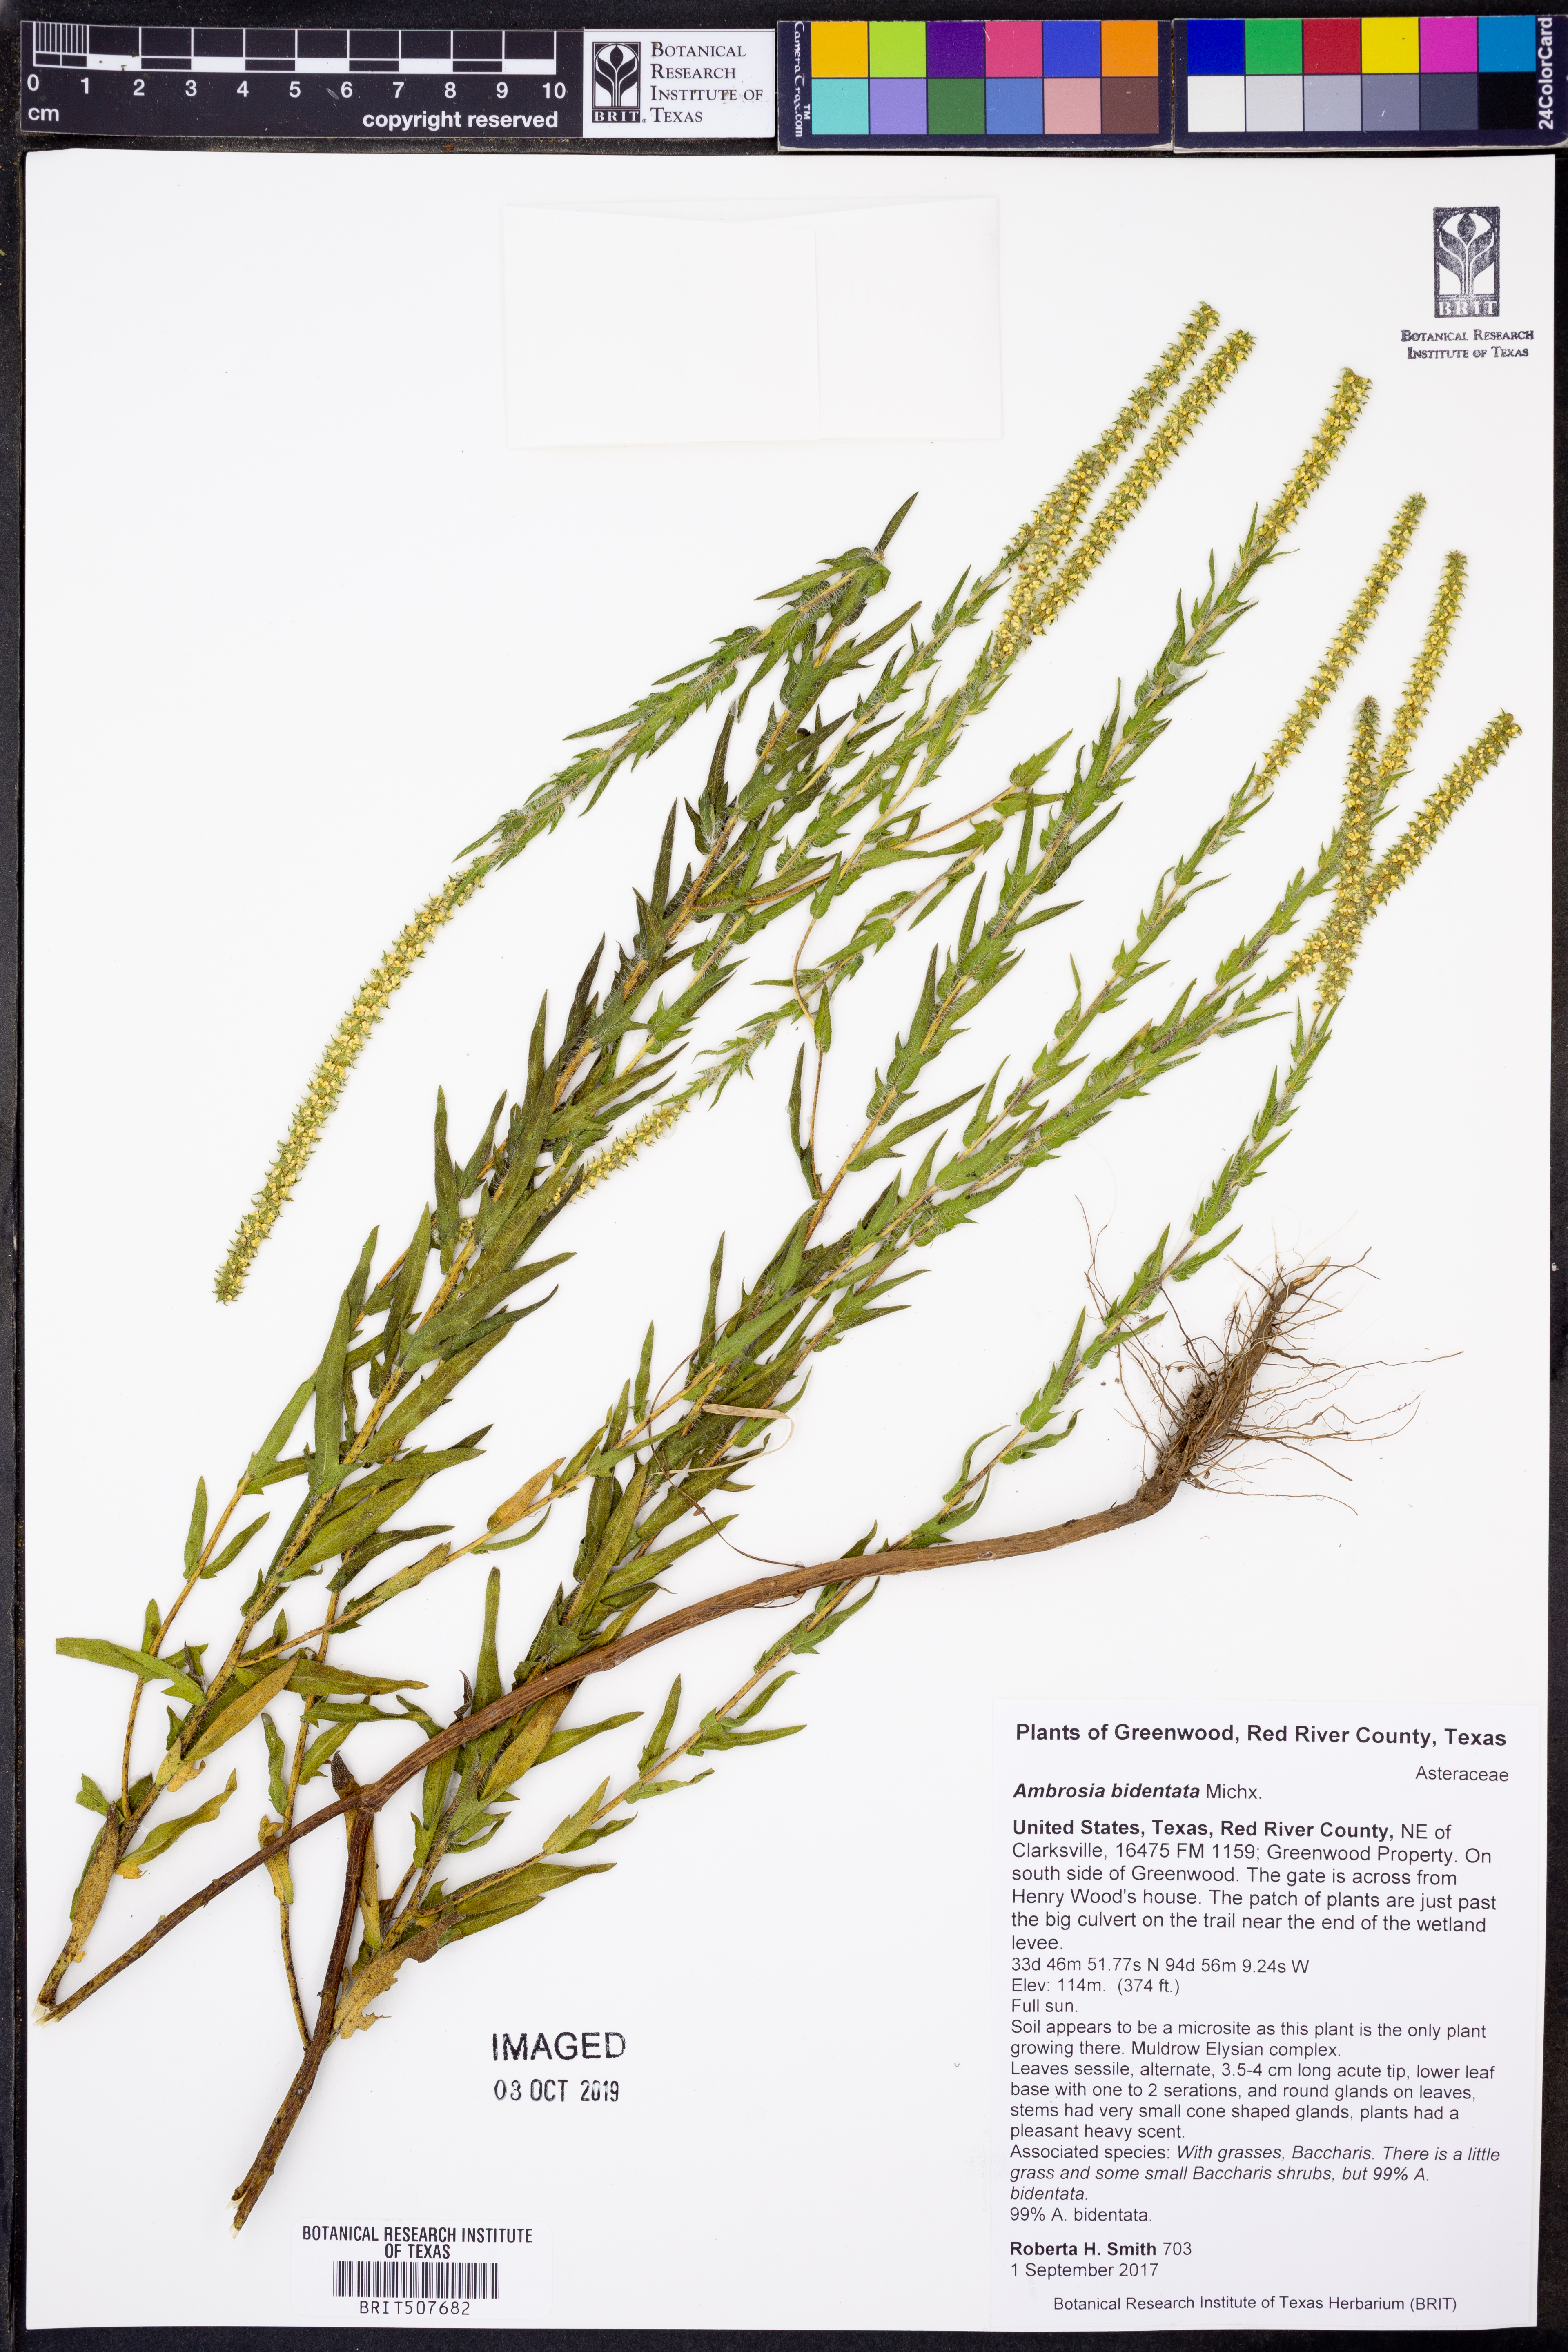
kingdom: Plantae
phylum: Tracheophyta
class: Magnoliopsida
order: Asterales
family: Asteraceae
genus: Ambrosia
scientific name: Ambrosia bidentata
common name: Southern ragweed
